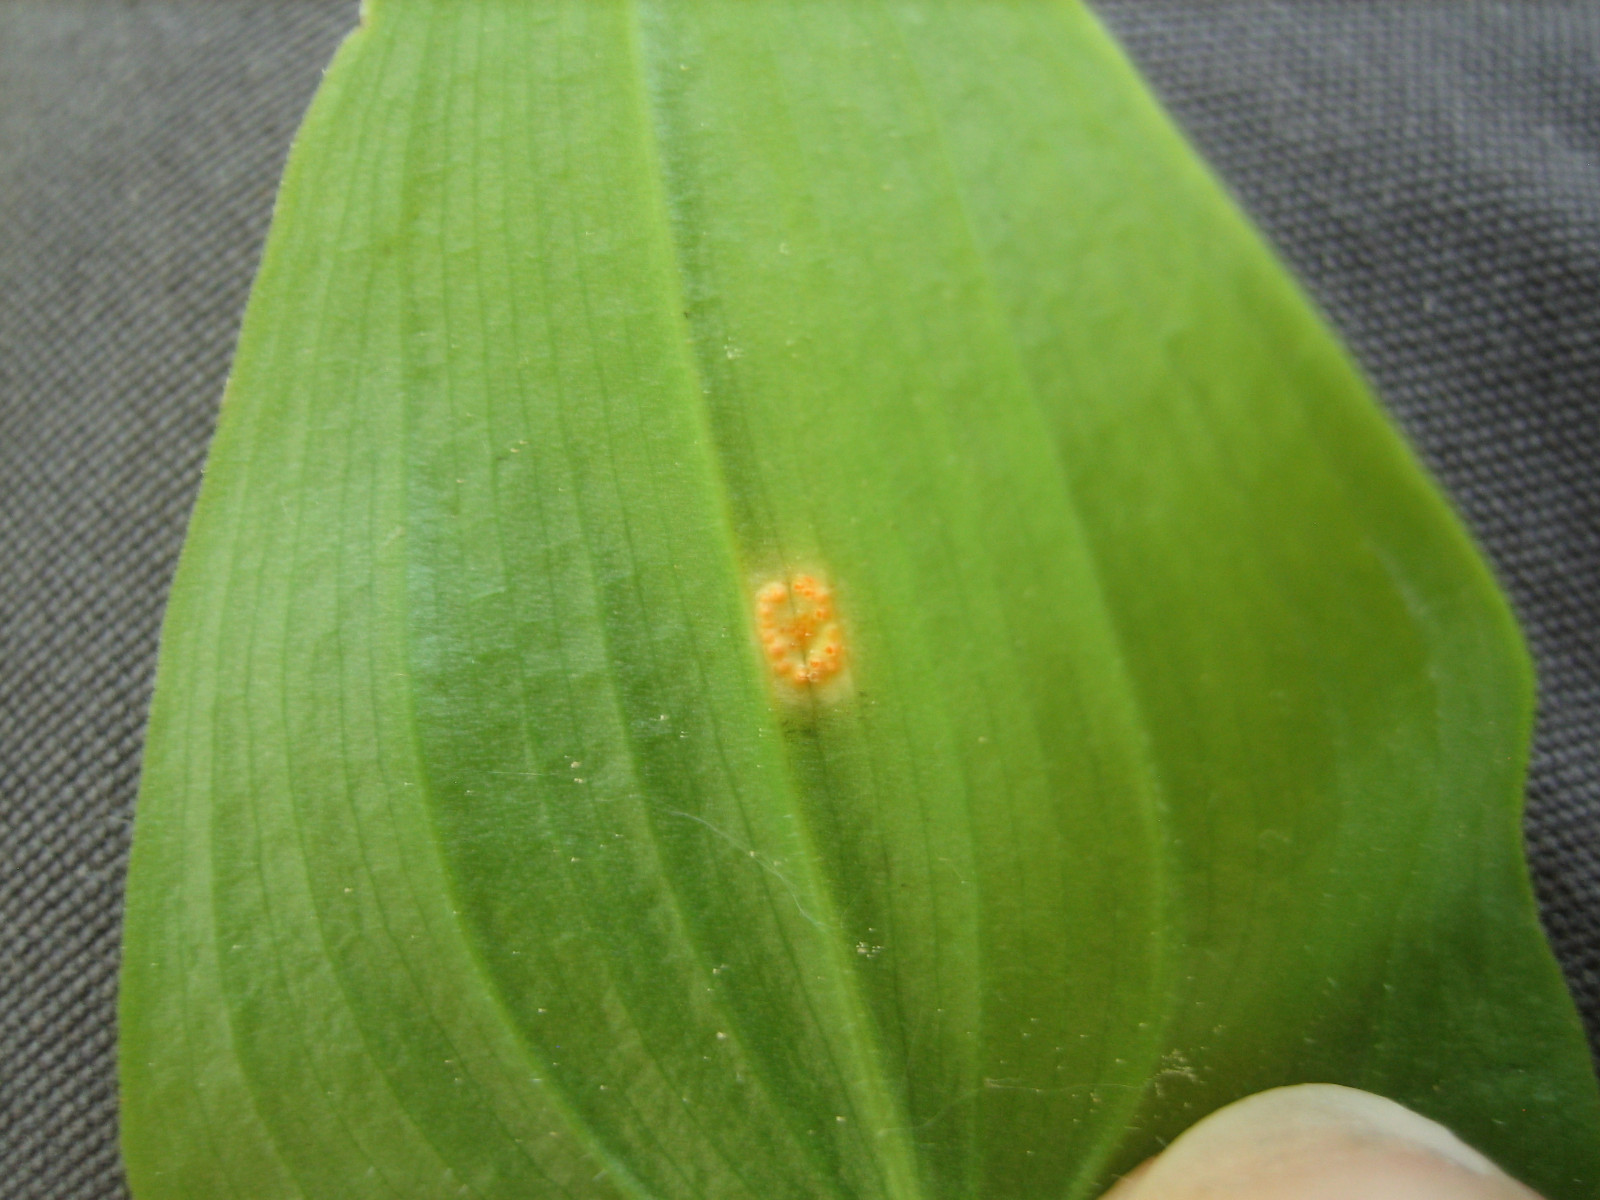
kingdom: Fungi
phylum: Basidiomycota
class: Pucciniomycetes
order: Pucciniales
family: Pucciniaceae
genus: Puccinia
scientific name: Puccinia sessilis
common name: Arum rust
